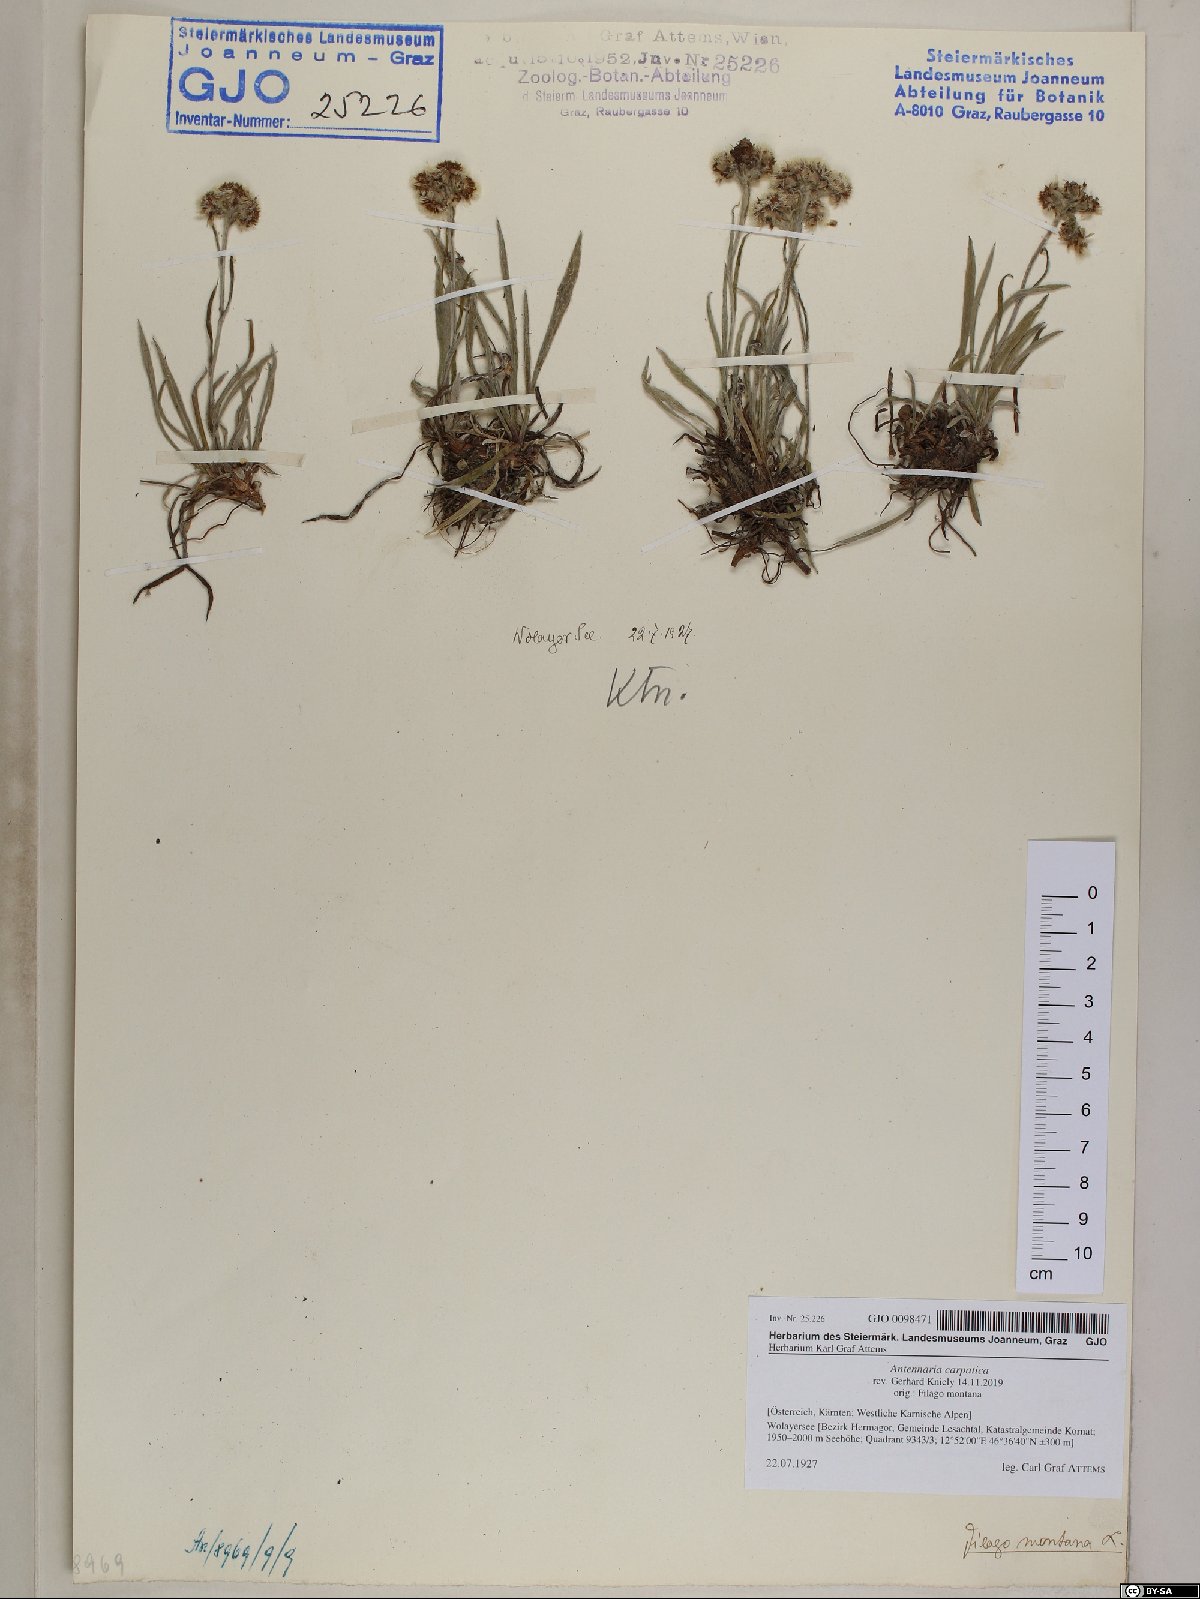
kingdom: Plantae
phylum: Tracheophyta
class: Magnoliopsida
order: Asterales
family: Asteraceae
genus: Antennaria
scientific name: Antennaria carpatica
